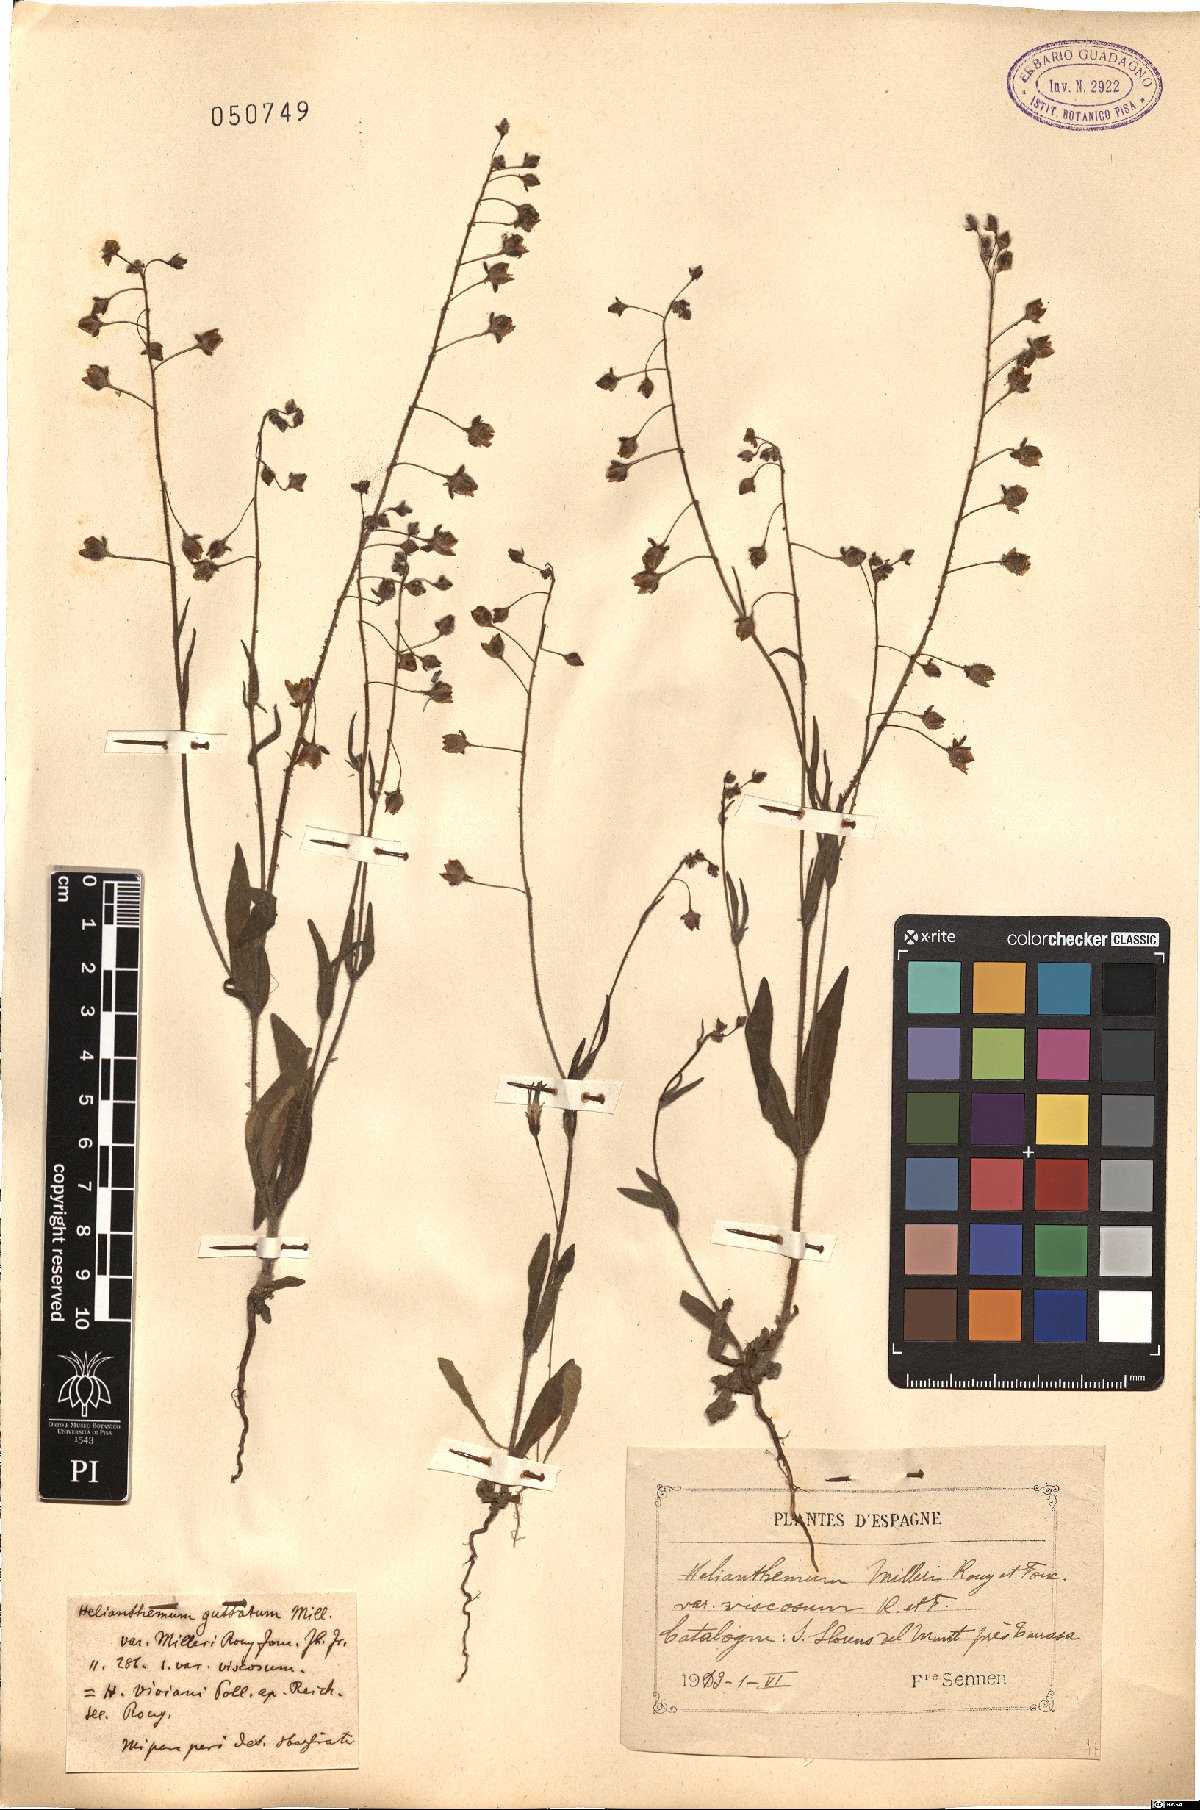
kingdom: Plantae
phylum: Tracheophyta
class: Magnoliopsida
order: Malvales
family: Cistaceae
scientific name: Cistaceae
